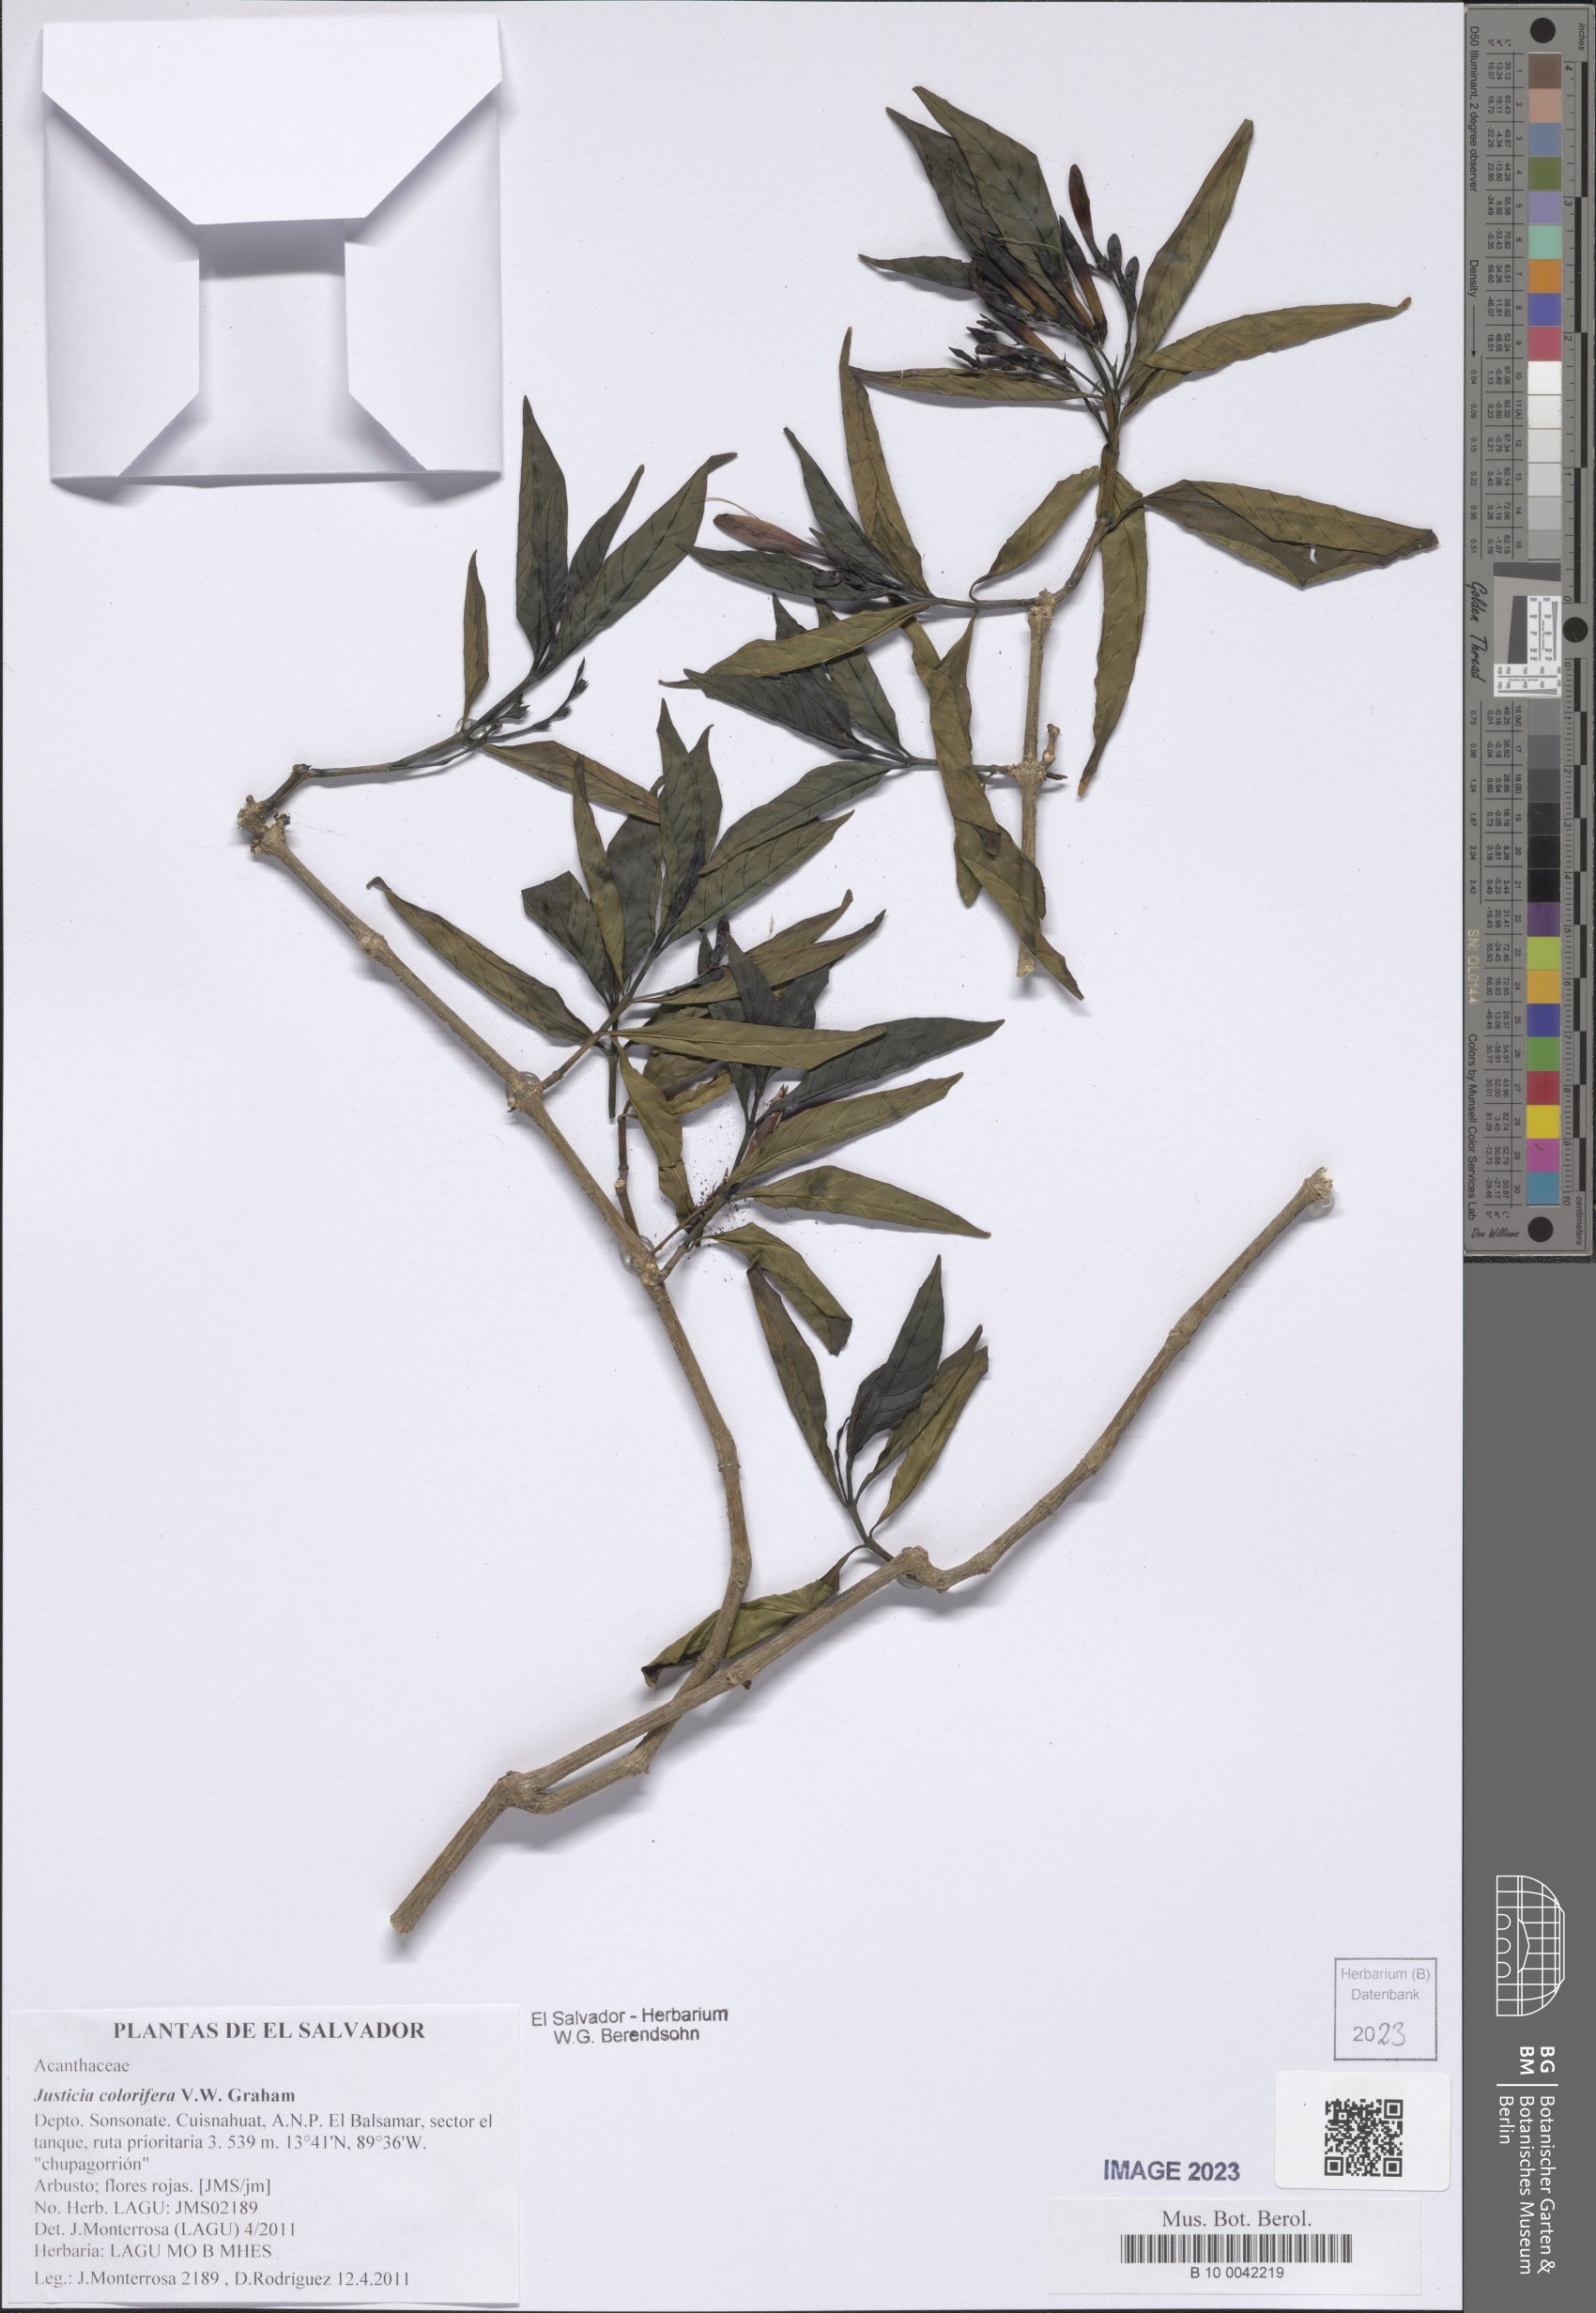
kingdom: Plantae
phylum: Tracheophyta
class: Magnoliopsida
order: Lamiales
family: Acanthaceae
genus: Justicia
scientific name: Justicia tinctoriella
